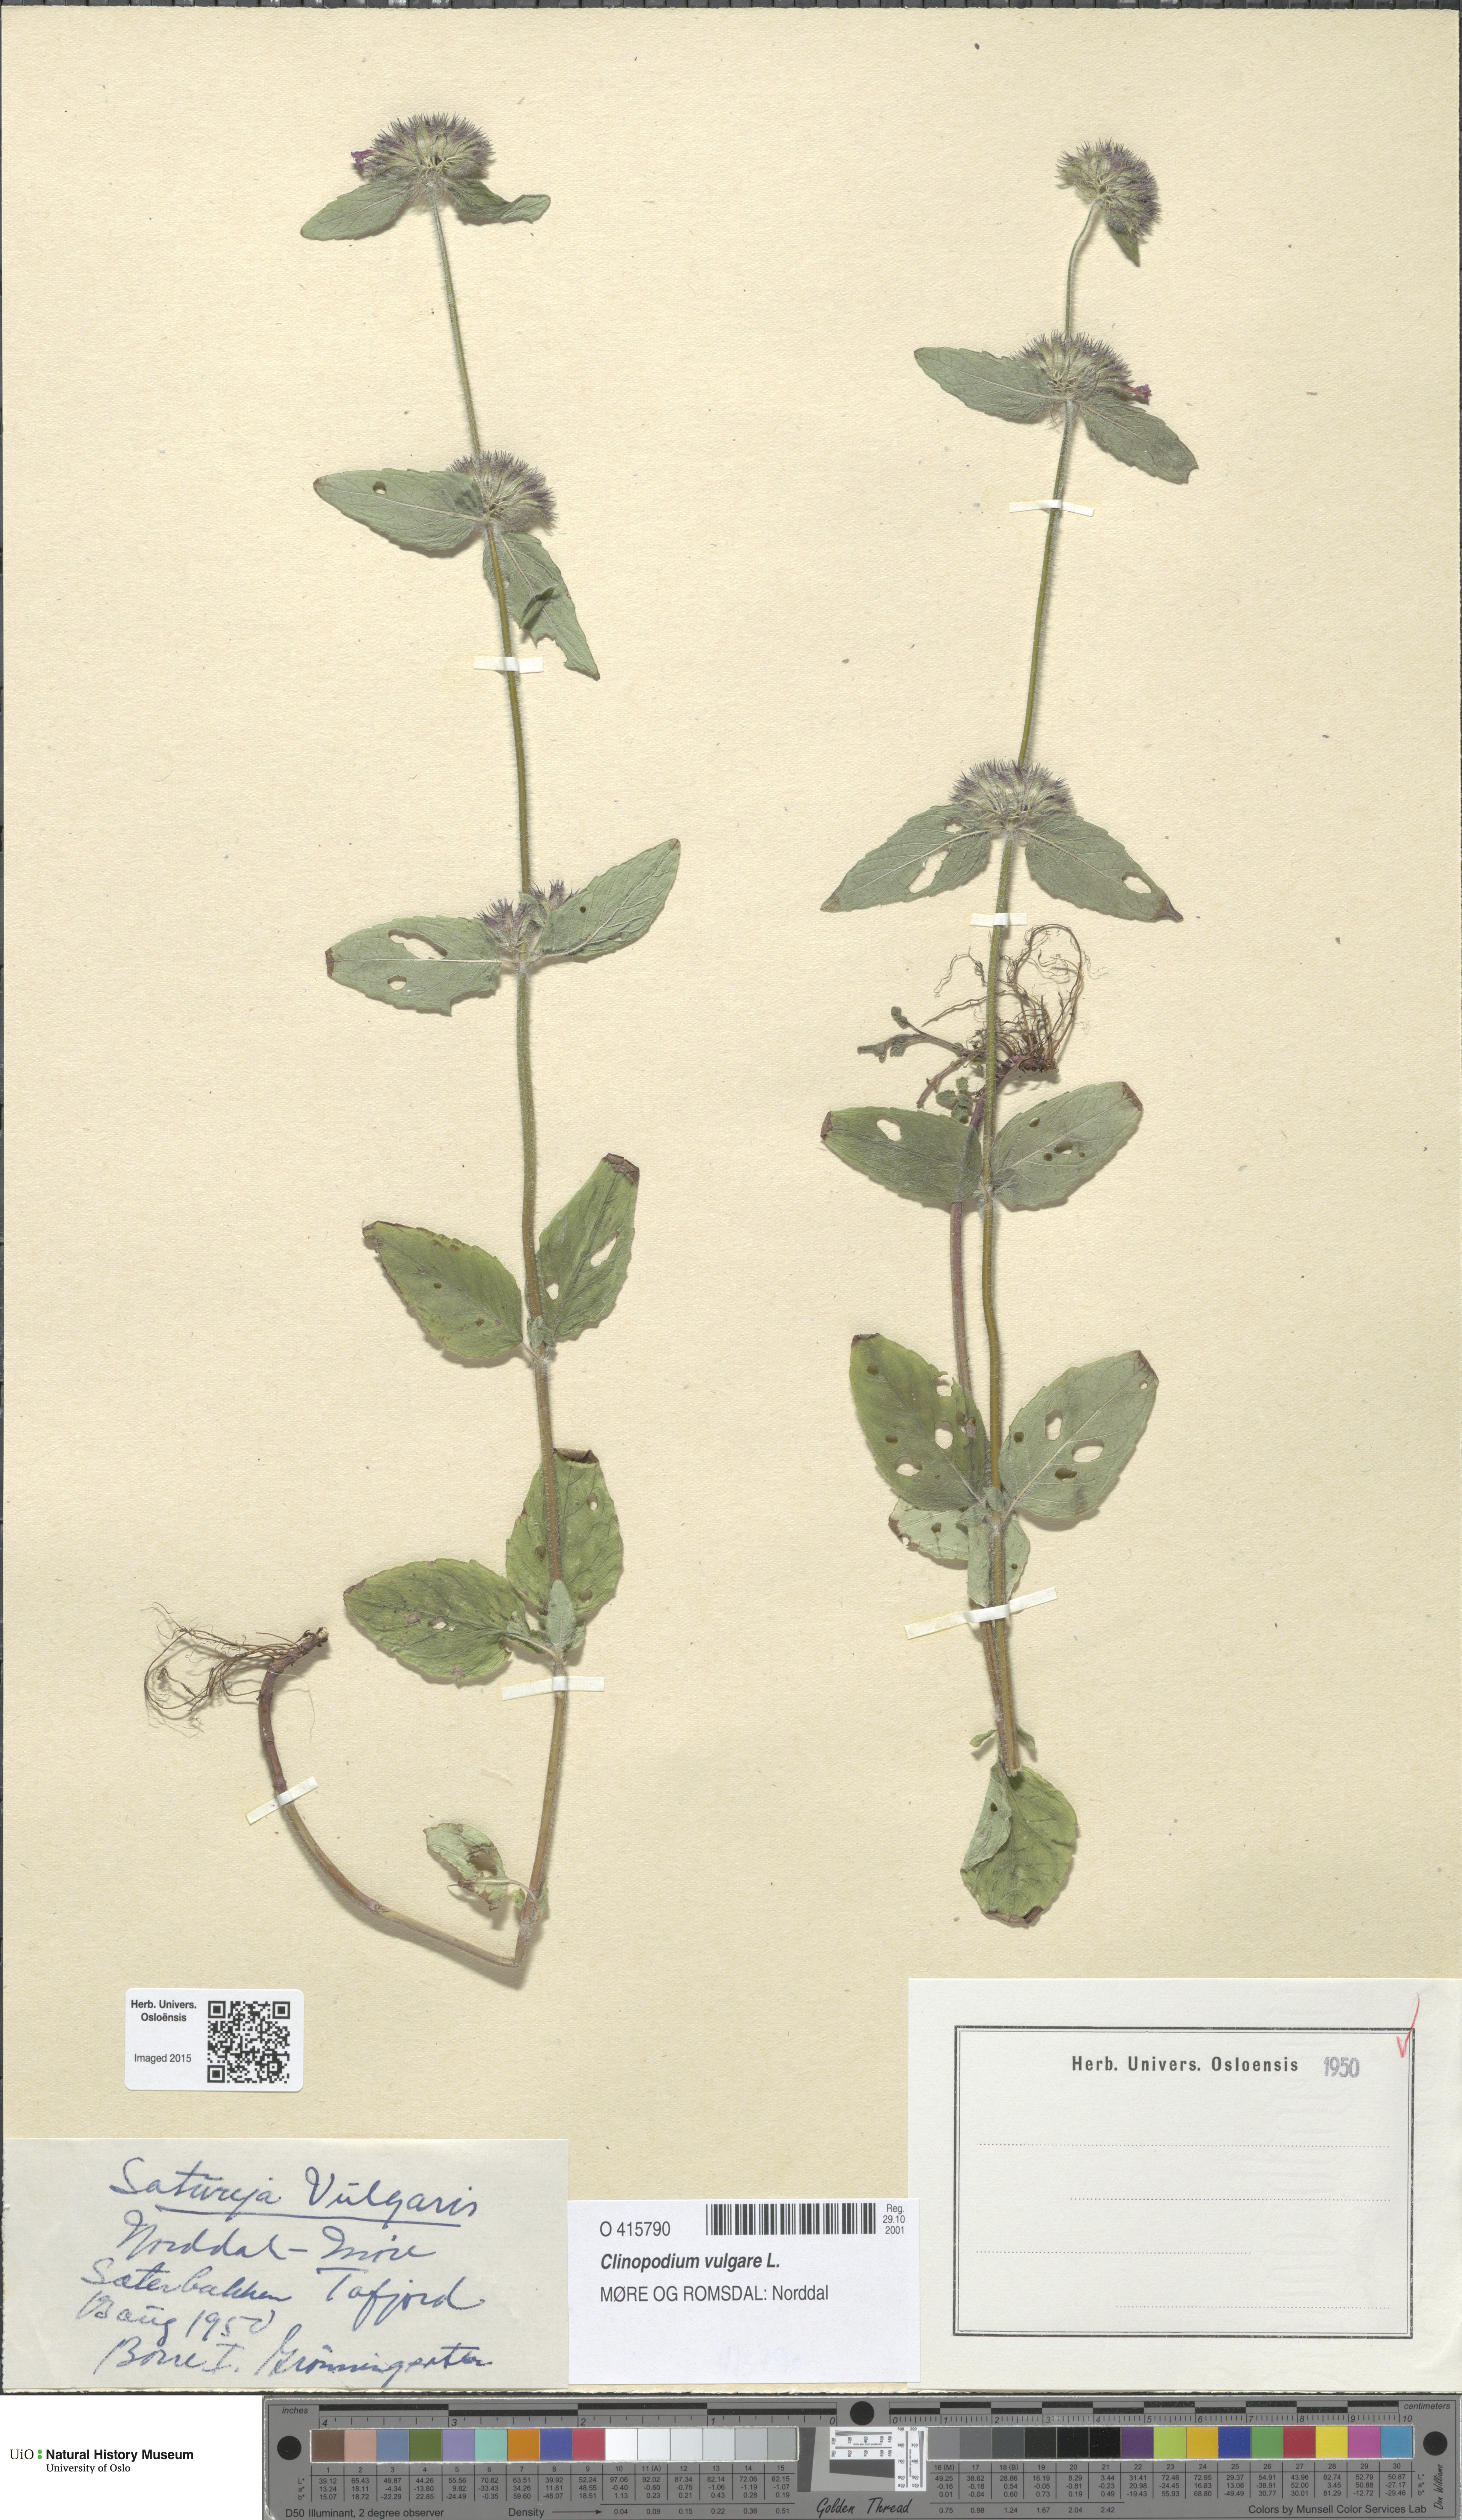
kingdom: Plantae
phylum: Tracheophyta
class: Magnoliopsida
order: Lamiales
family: Lamiaceae
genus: Clinopodium
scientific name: Clinopodium vulgare
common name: Wild basil
